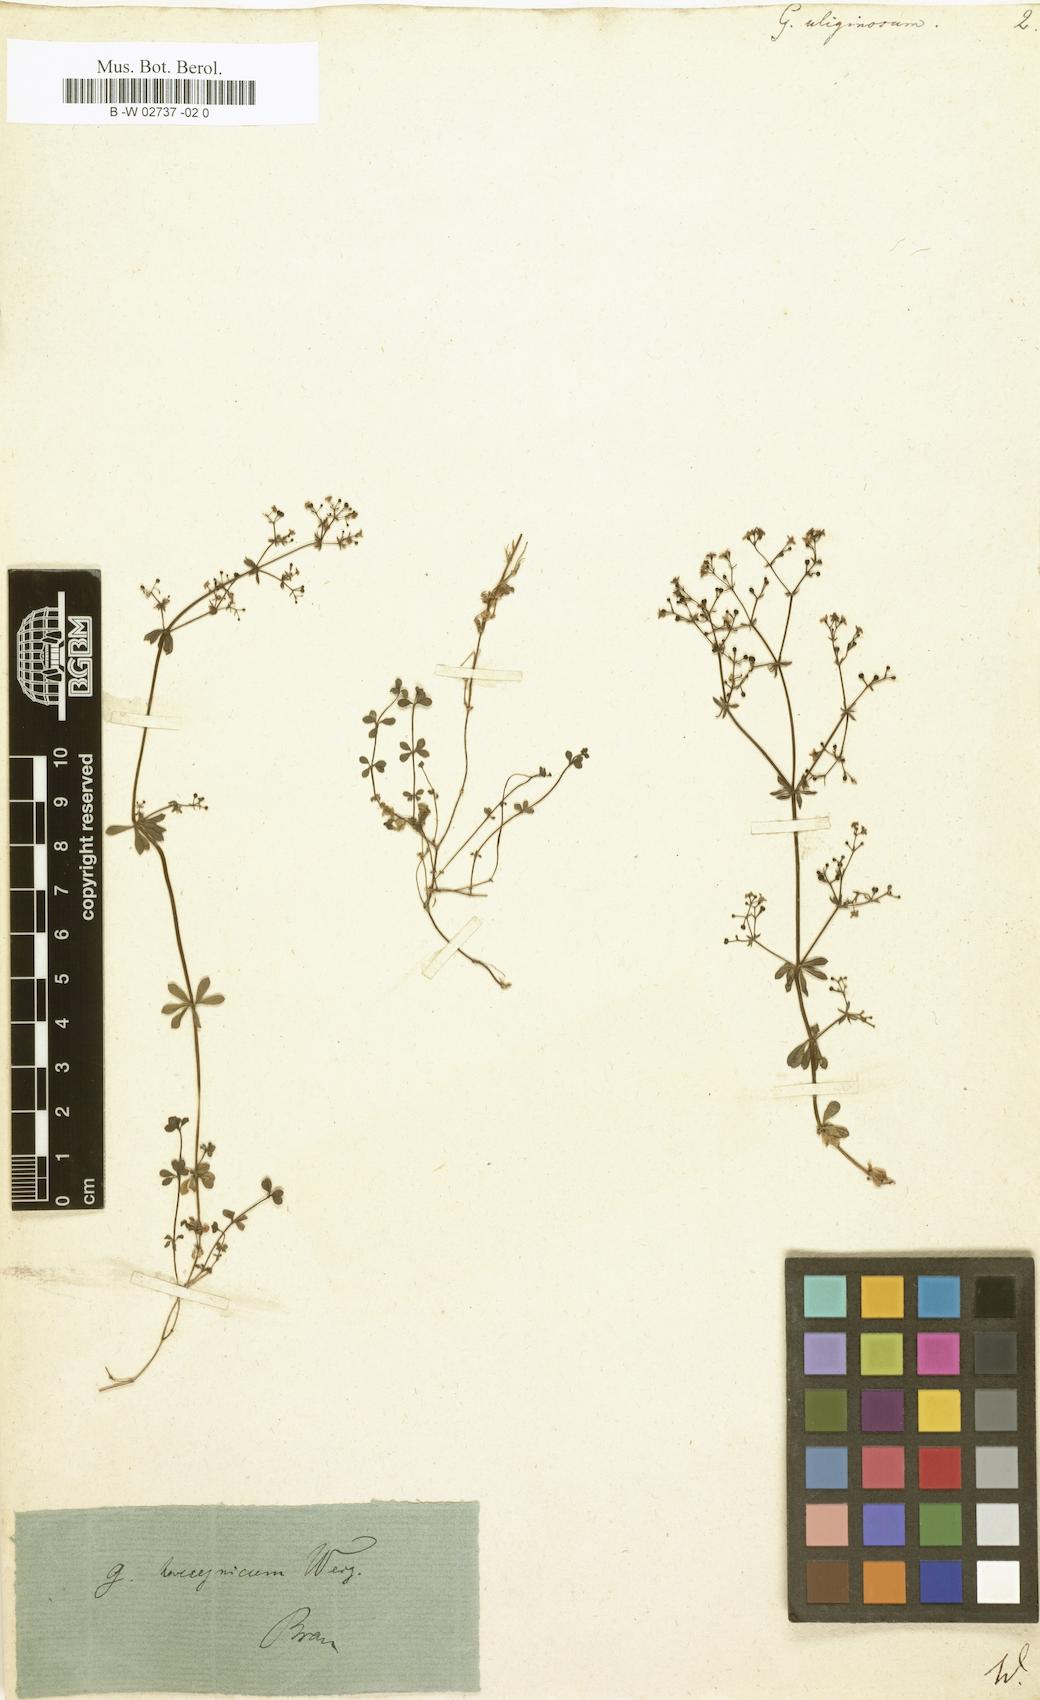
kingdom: Plantae
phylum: Tracheophyta
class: Magnoliopsida
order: Gentianales
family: Rubiaceae
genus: Galium
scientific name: Galium uliginosum
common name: Fen bedstraw
